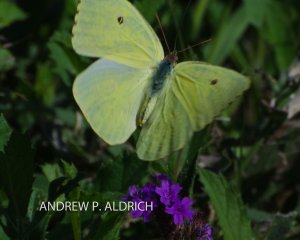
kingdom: Animalia
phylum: Arthropoda
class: Insecta
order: Lepidoptera
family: Pieridae
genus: Phoebis
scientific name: Phoebis sennae
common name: Cloudless Sulphur
